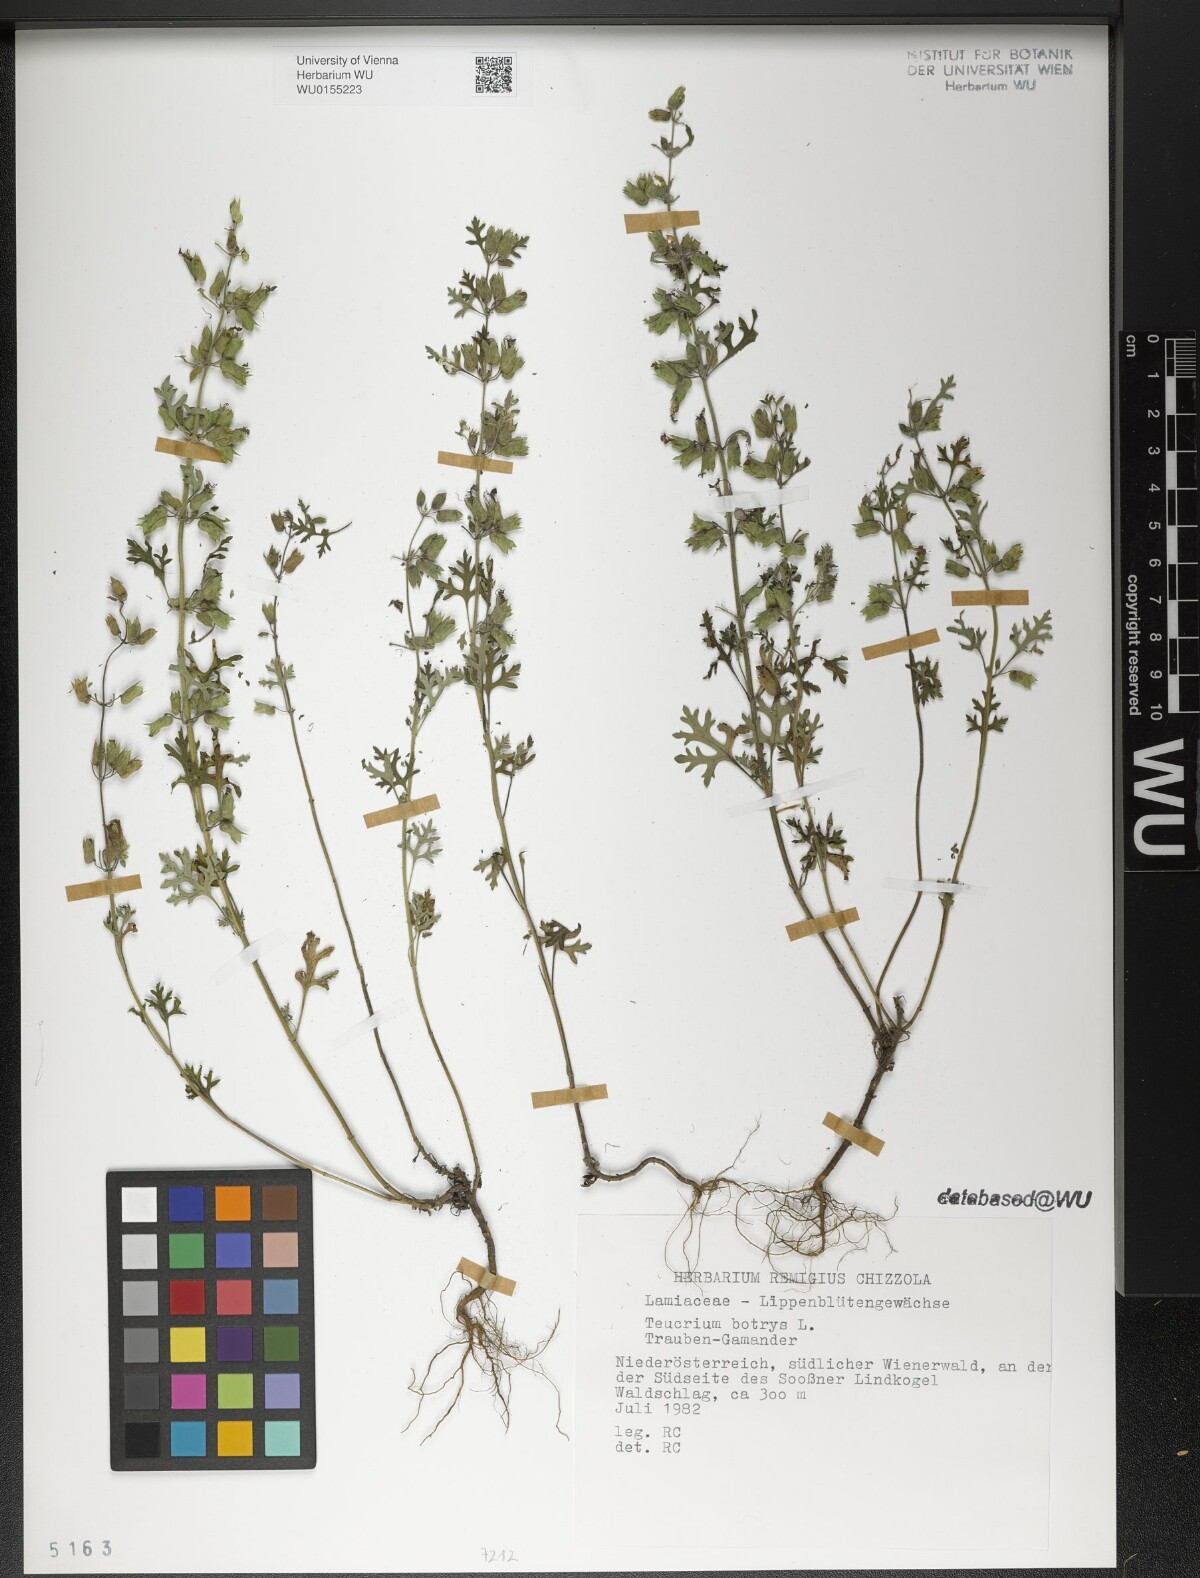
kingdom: Plantae
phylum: Tracheophyta
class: Magnoliopsida
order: Lamiales
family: Lamiaceae
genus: Teucrium
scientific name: Teucrium botrys
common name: Cut-leaved germander
